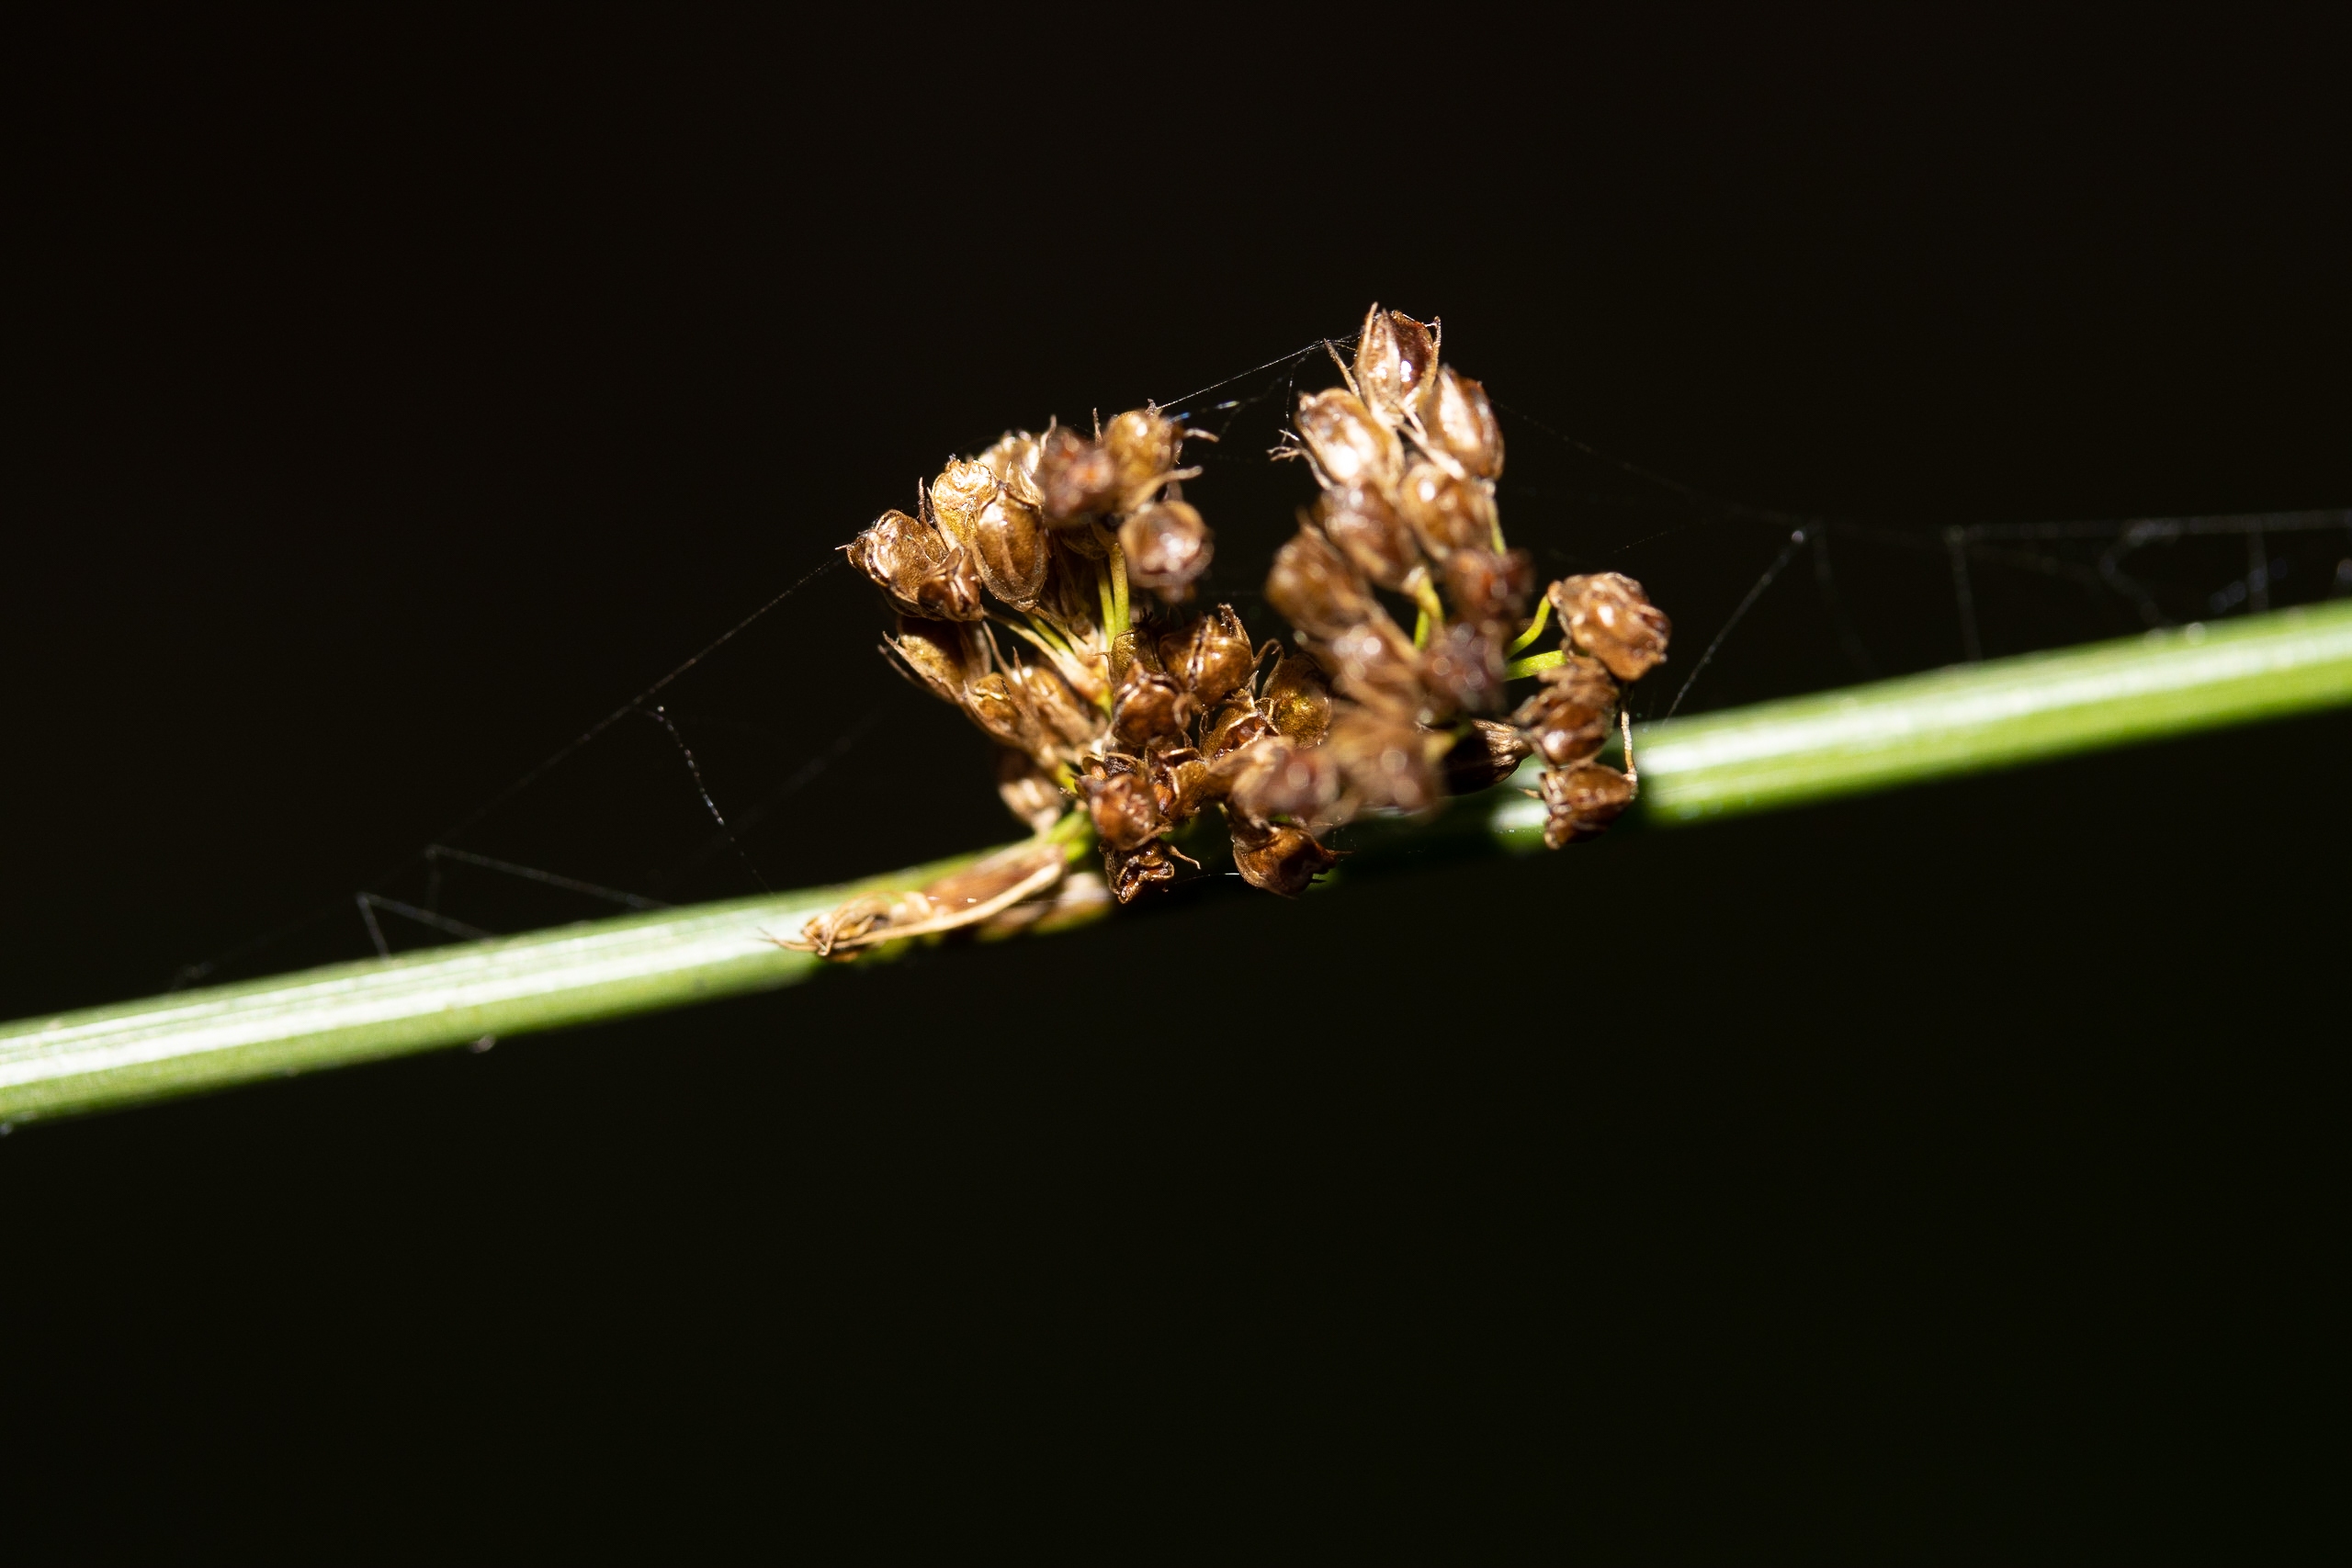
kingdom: Plantae
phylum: Tracheophyta
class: Liliopsida
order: Poales
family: Juncaceae
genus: Juncus
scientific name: Juncus effusus
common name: Lyse-siv
